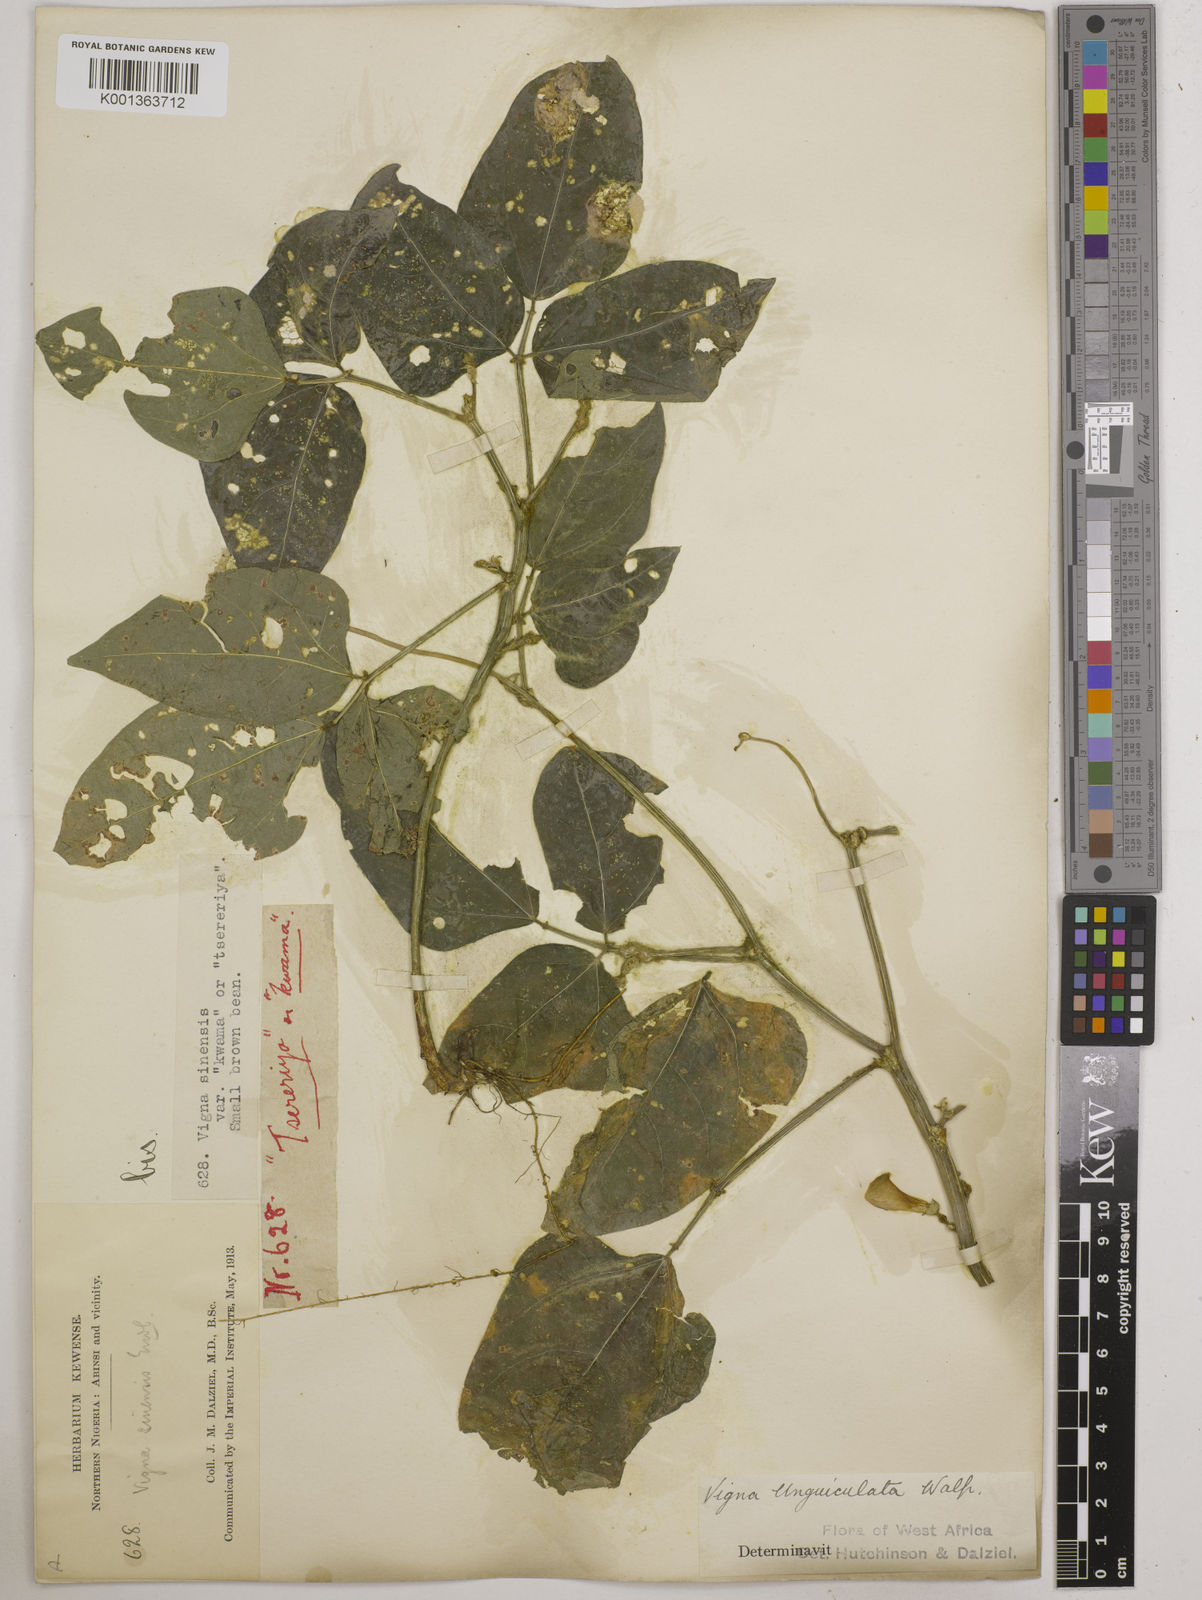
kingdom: Plantae
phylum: Tracheophyta
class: Magnoliopsida
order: Fabales
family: Fabaceae
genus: Vigna
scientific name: Vigna unguiculata
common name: Cowpea
